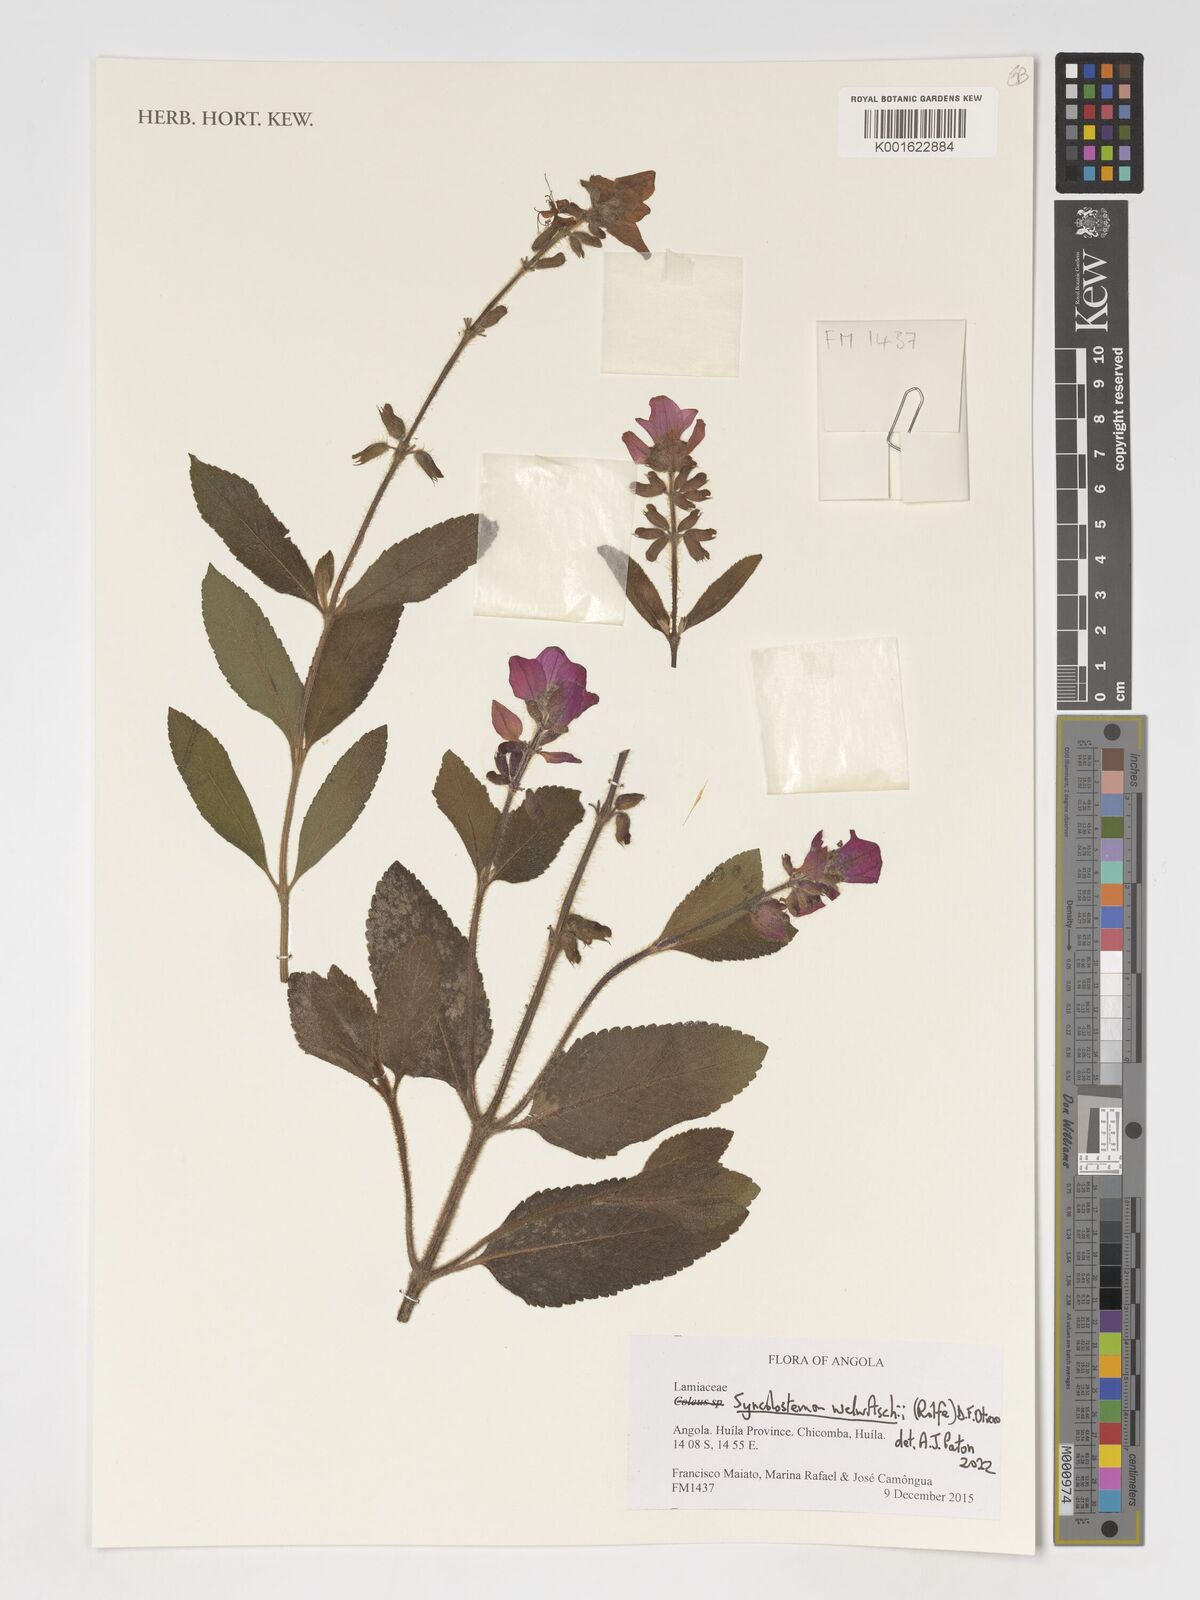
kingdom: Plantae
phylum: Tracheophyta
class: Magnoliopsida
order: Lamiales
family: Lamiaceae
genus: Syncolostemon
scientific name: Syncolostemon welwitschii
